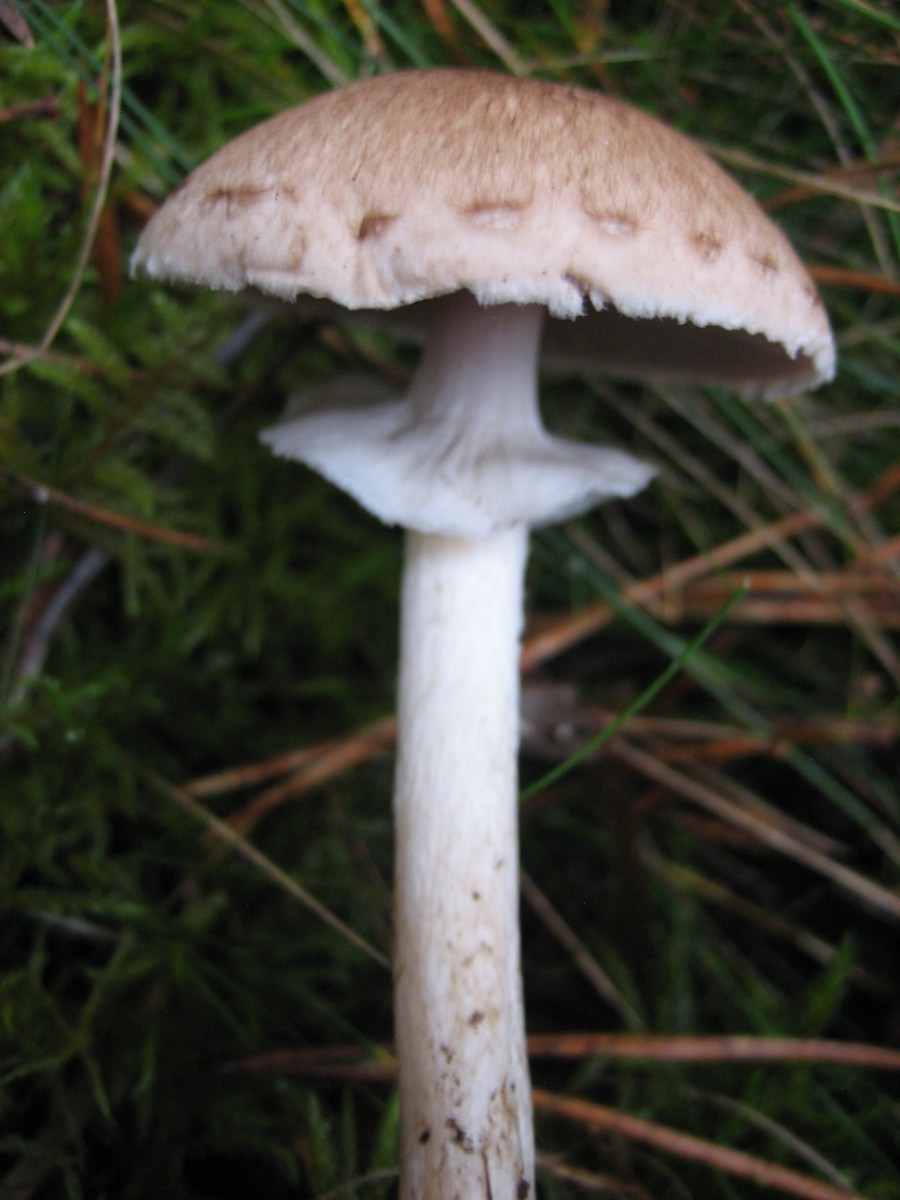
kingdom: Fungi
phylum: Basidiomycota
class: Agaricomycetes
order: Agaricales
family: Agaricaceae
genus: Agaricus
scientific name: Agaricus impudicus
